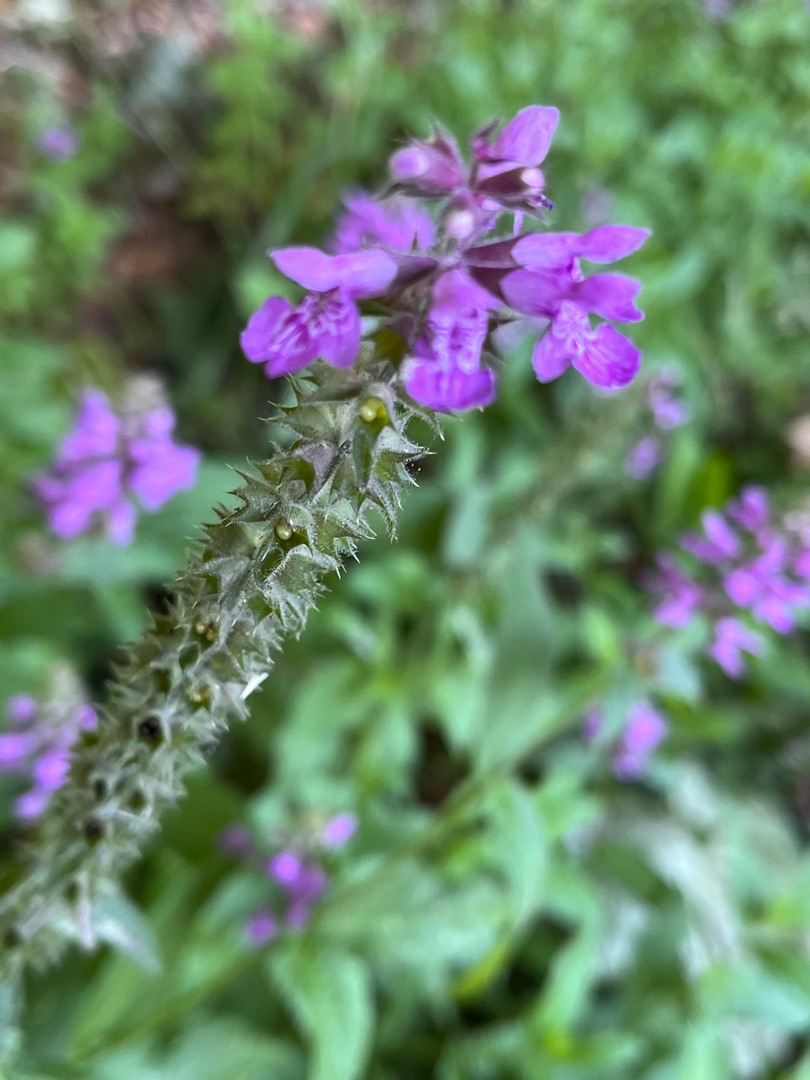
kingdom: Plantae
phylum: Tracheophyta
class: Magnoliopsida
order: Lamiales
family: Lamiaceae
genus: Stachys
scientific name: Stachys palustris
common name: Kær-galtetand
